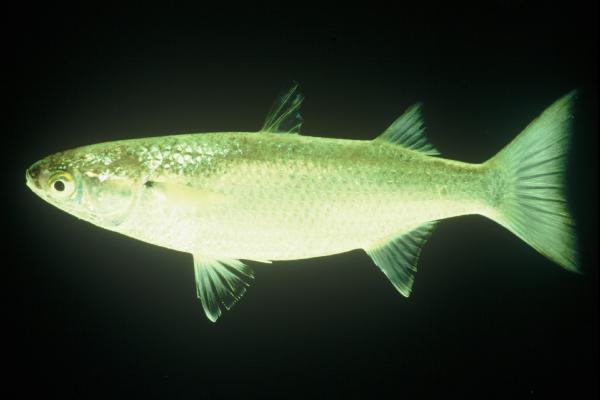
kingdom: Animalia
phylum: Chordata
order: Mugiliformes
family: Mugilidae
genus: Osteomugil
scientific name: Osteomugil robustus
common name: Robust mullet
